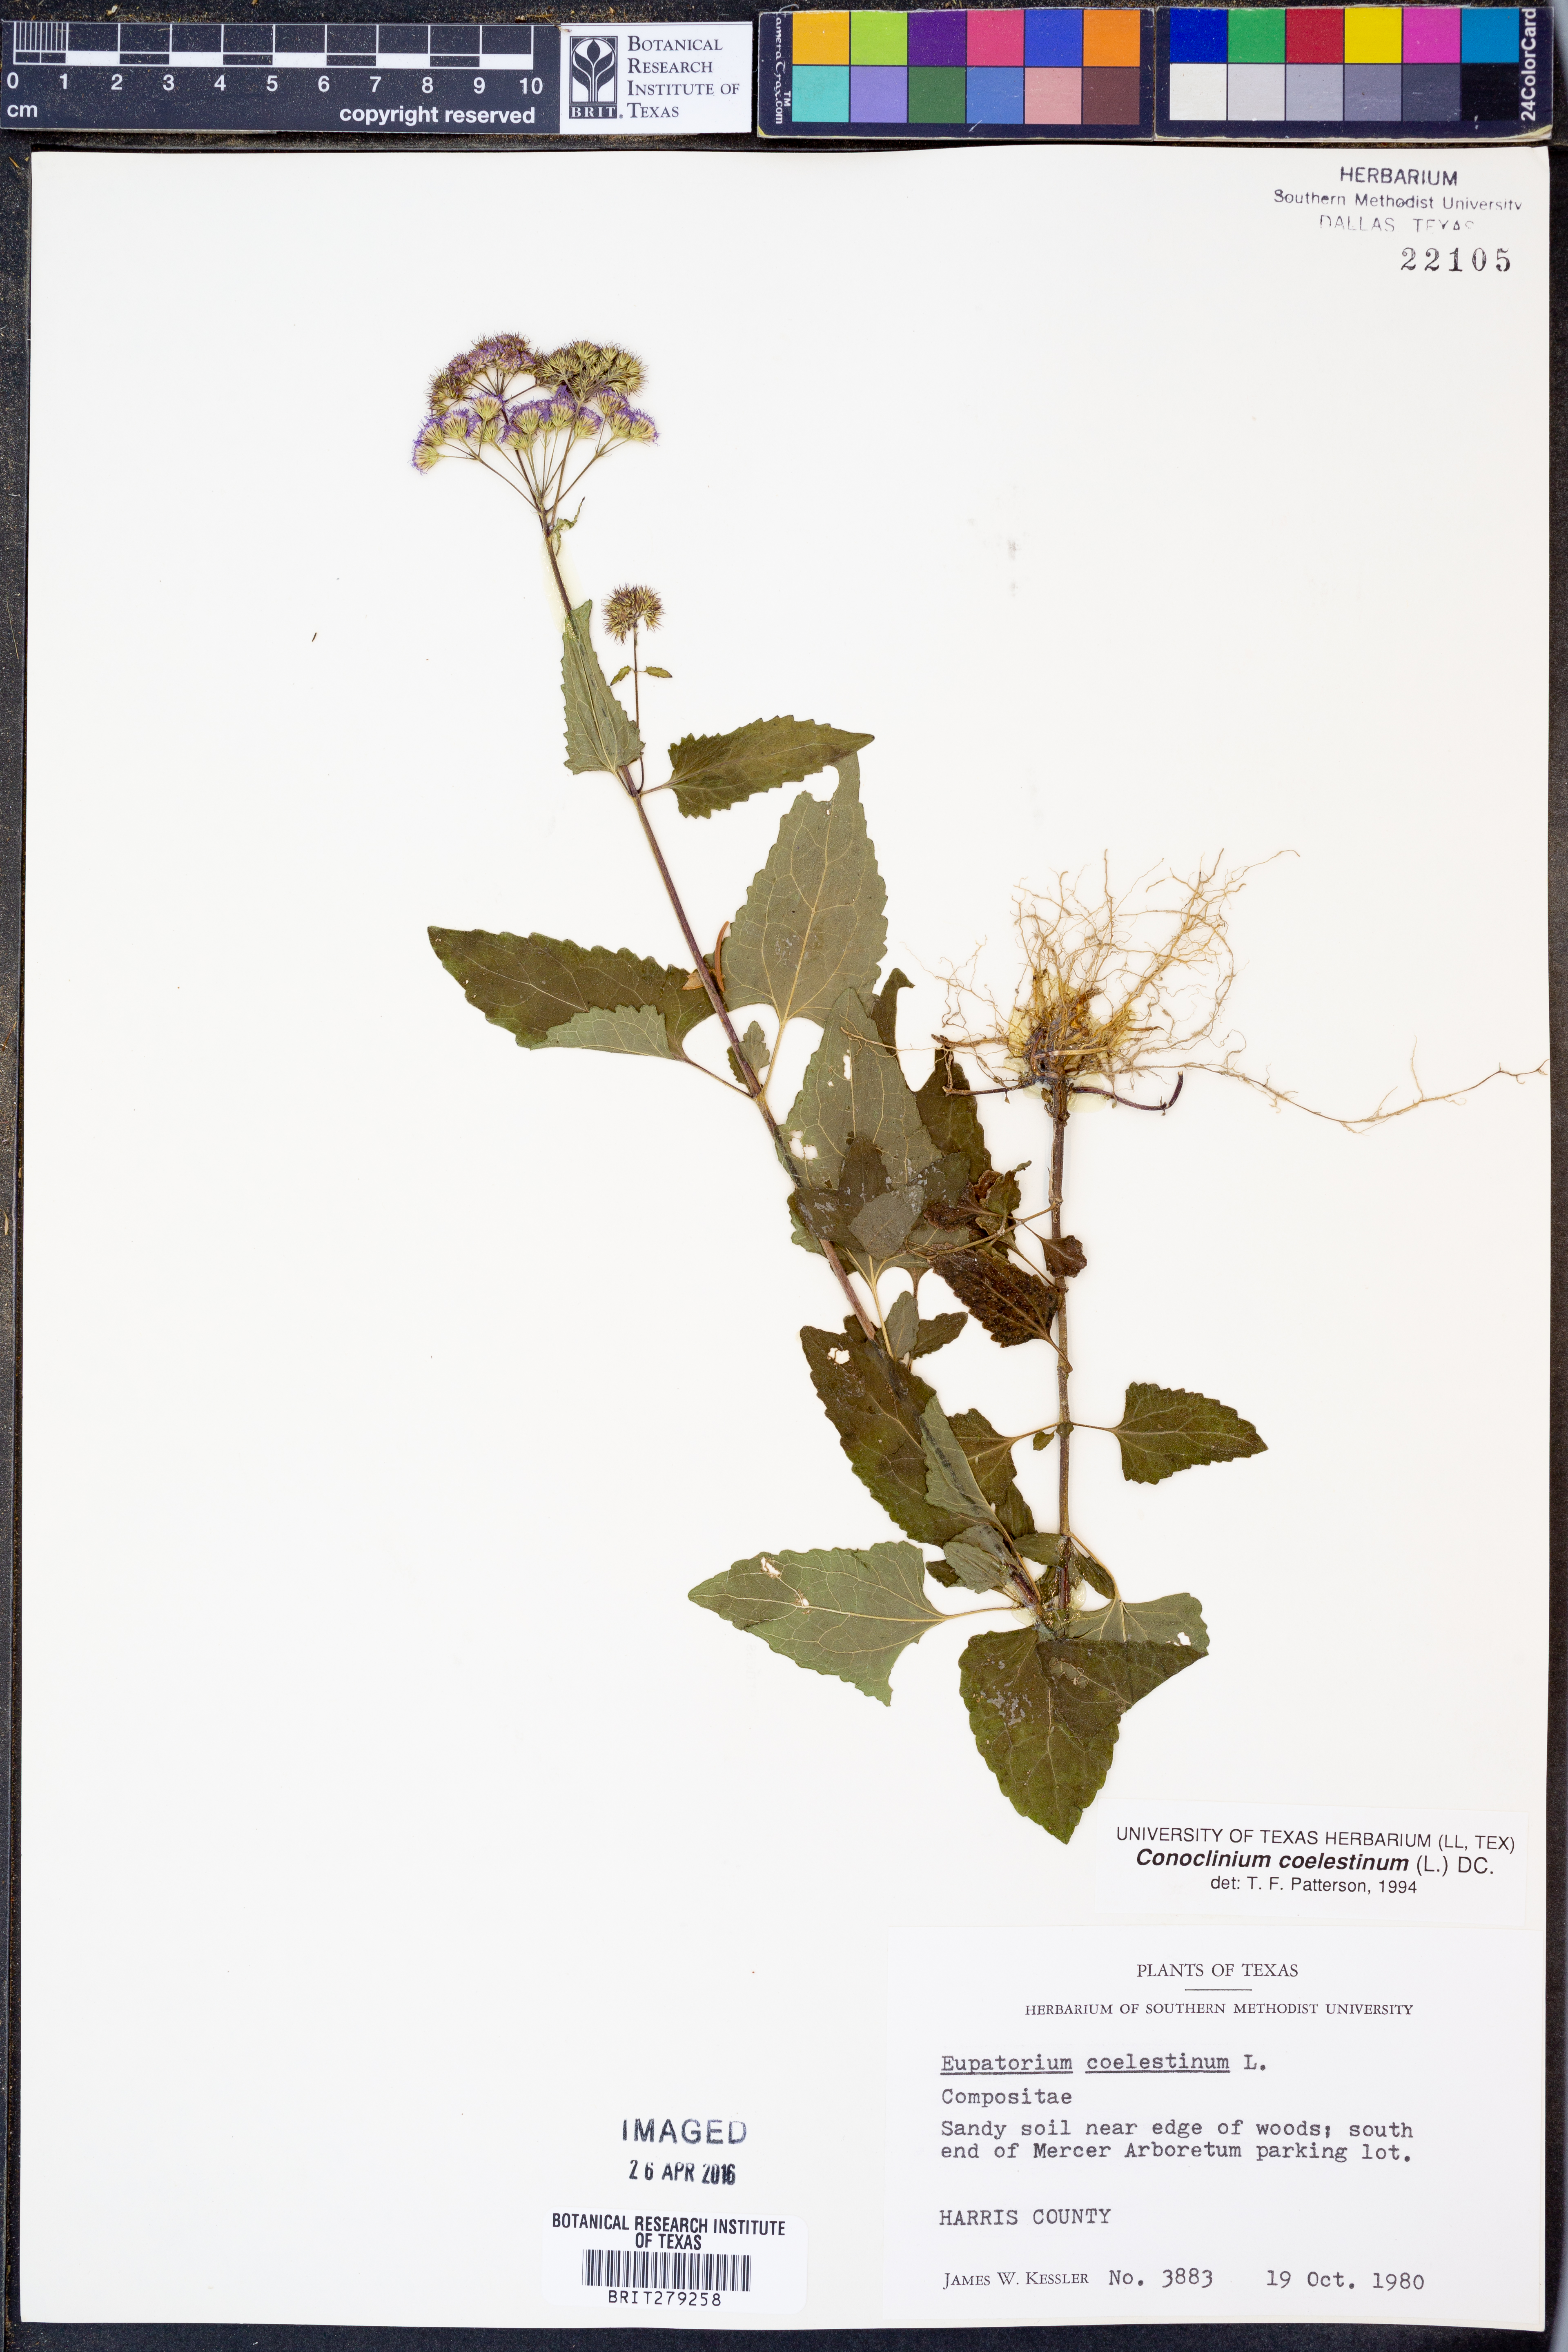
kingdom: Plantae
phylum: Tracheophyta
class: Magnoliopsida
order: Asterales
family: Asteraceae
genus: Conoclinium
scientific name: Conoclinium coelestinum
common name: Blue mistflower
